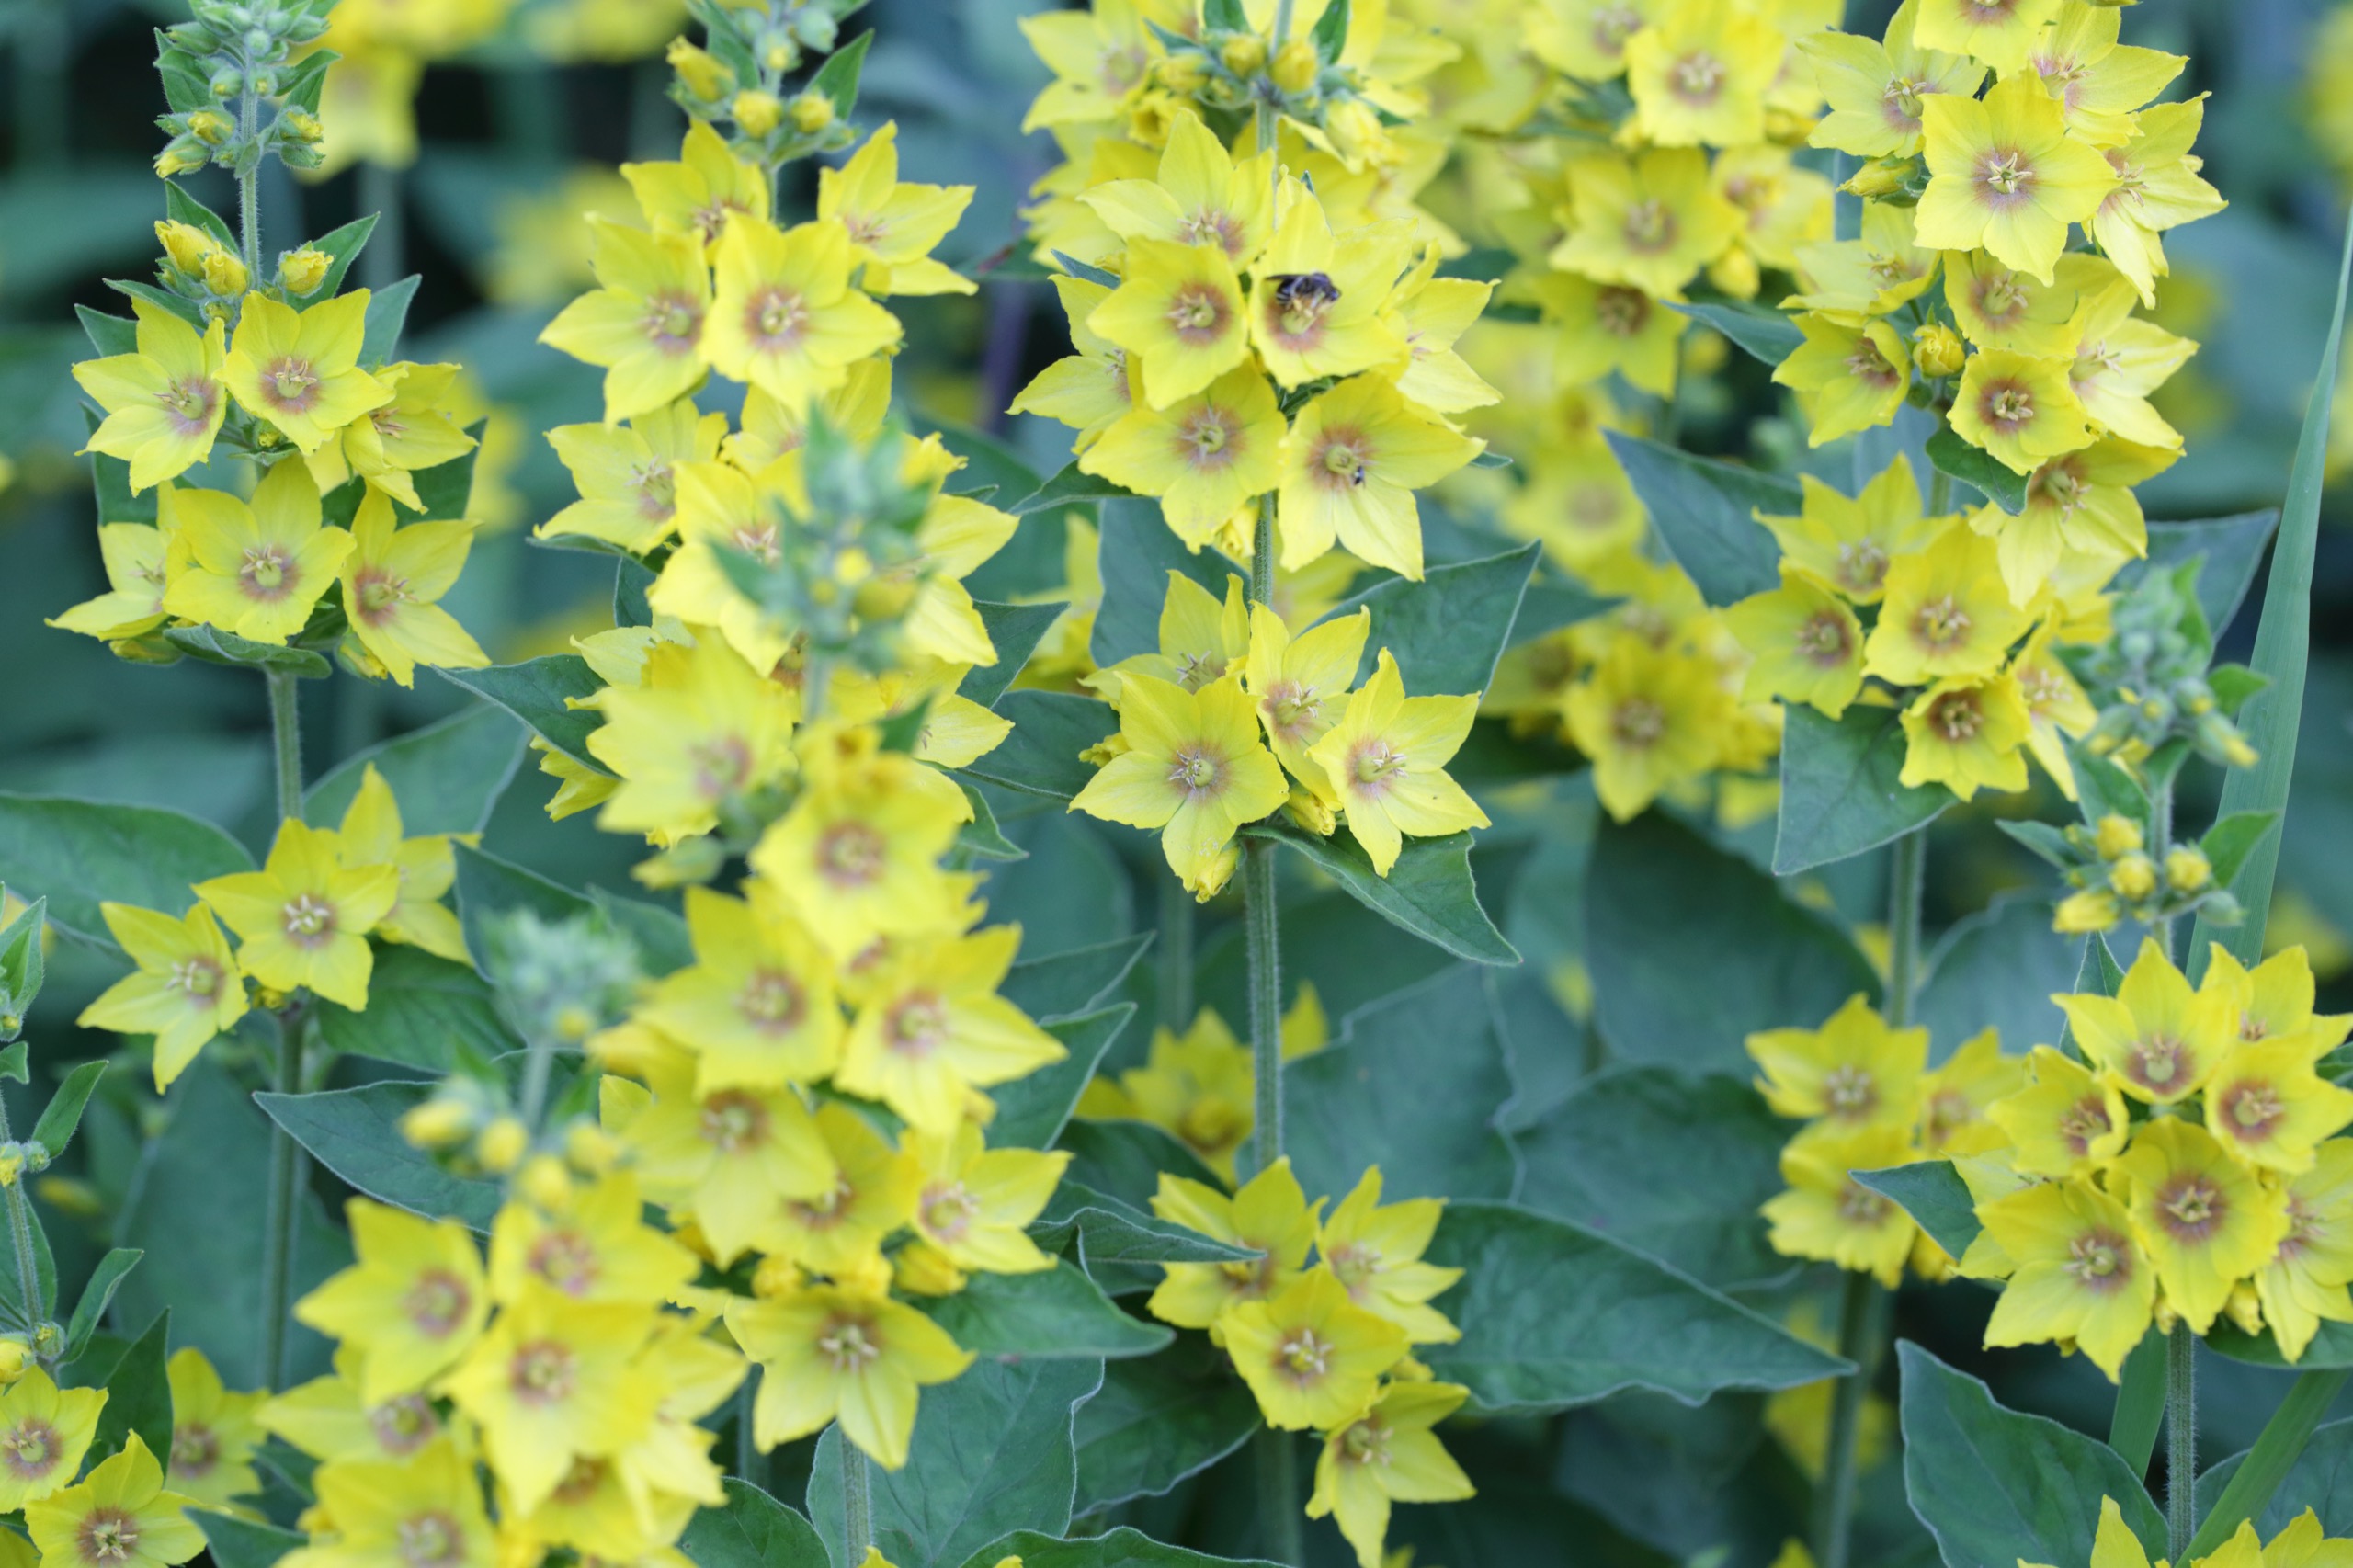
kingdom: Plantae
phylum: Tracheophyta
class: Magnoliopsida
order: Ericales
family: Primulaceae
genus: Lysimachia
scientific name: Lysimachia punctata
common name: Prikbladet fredløs
